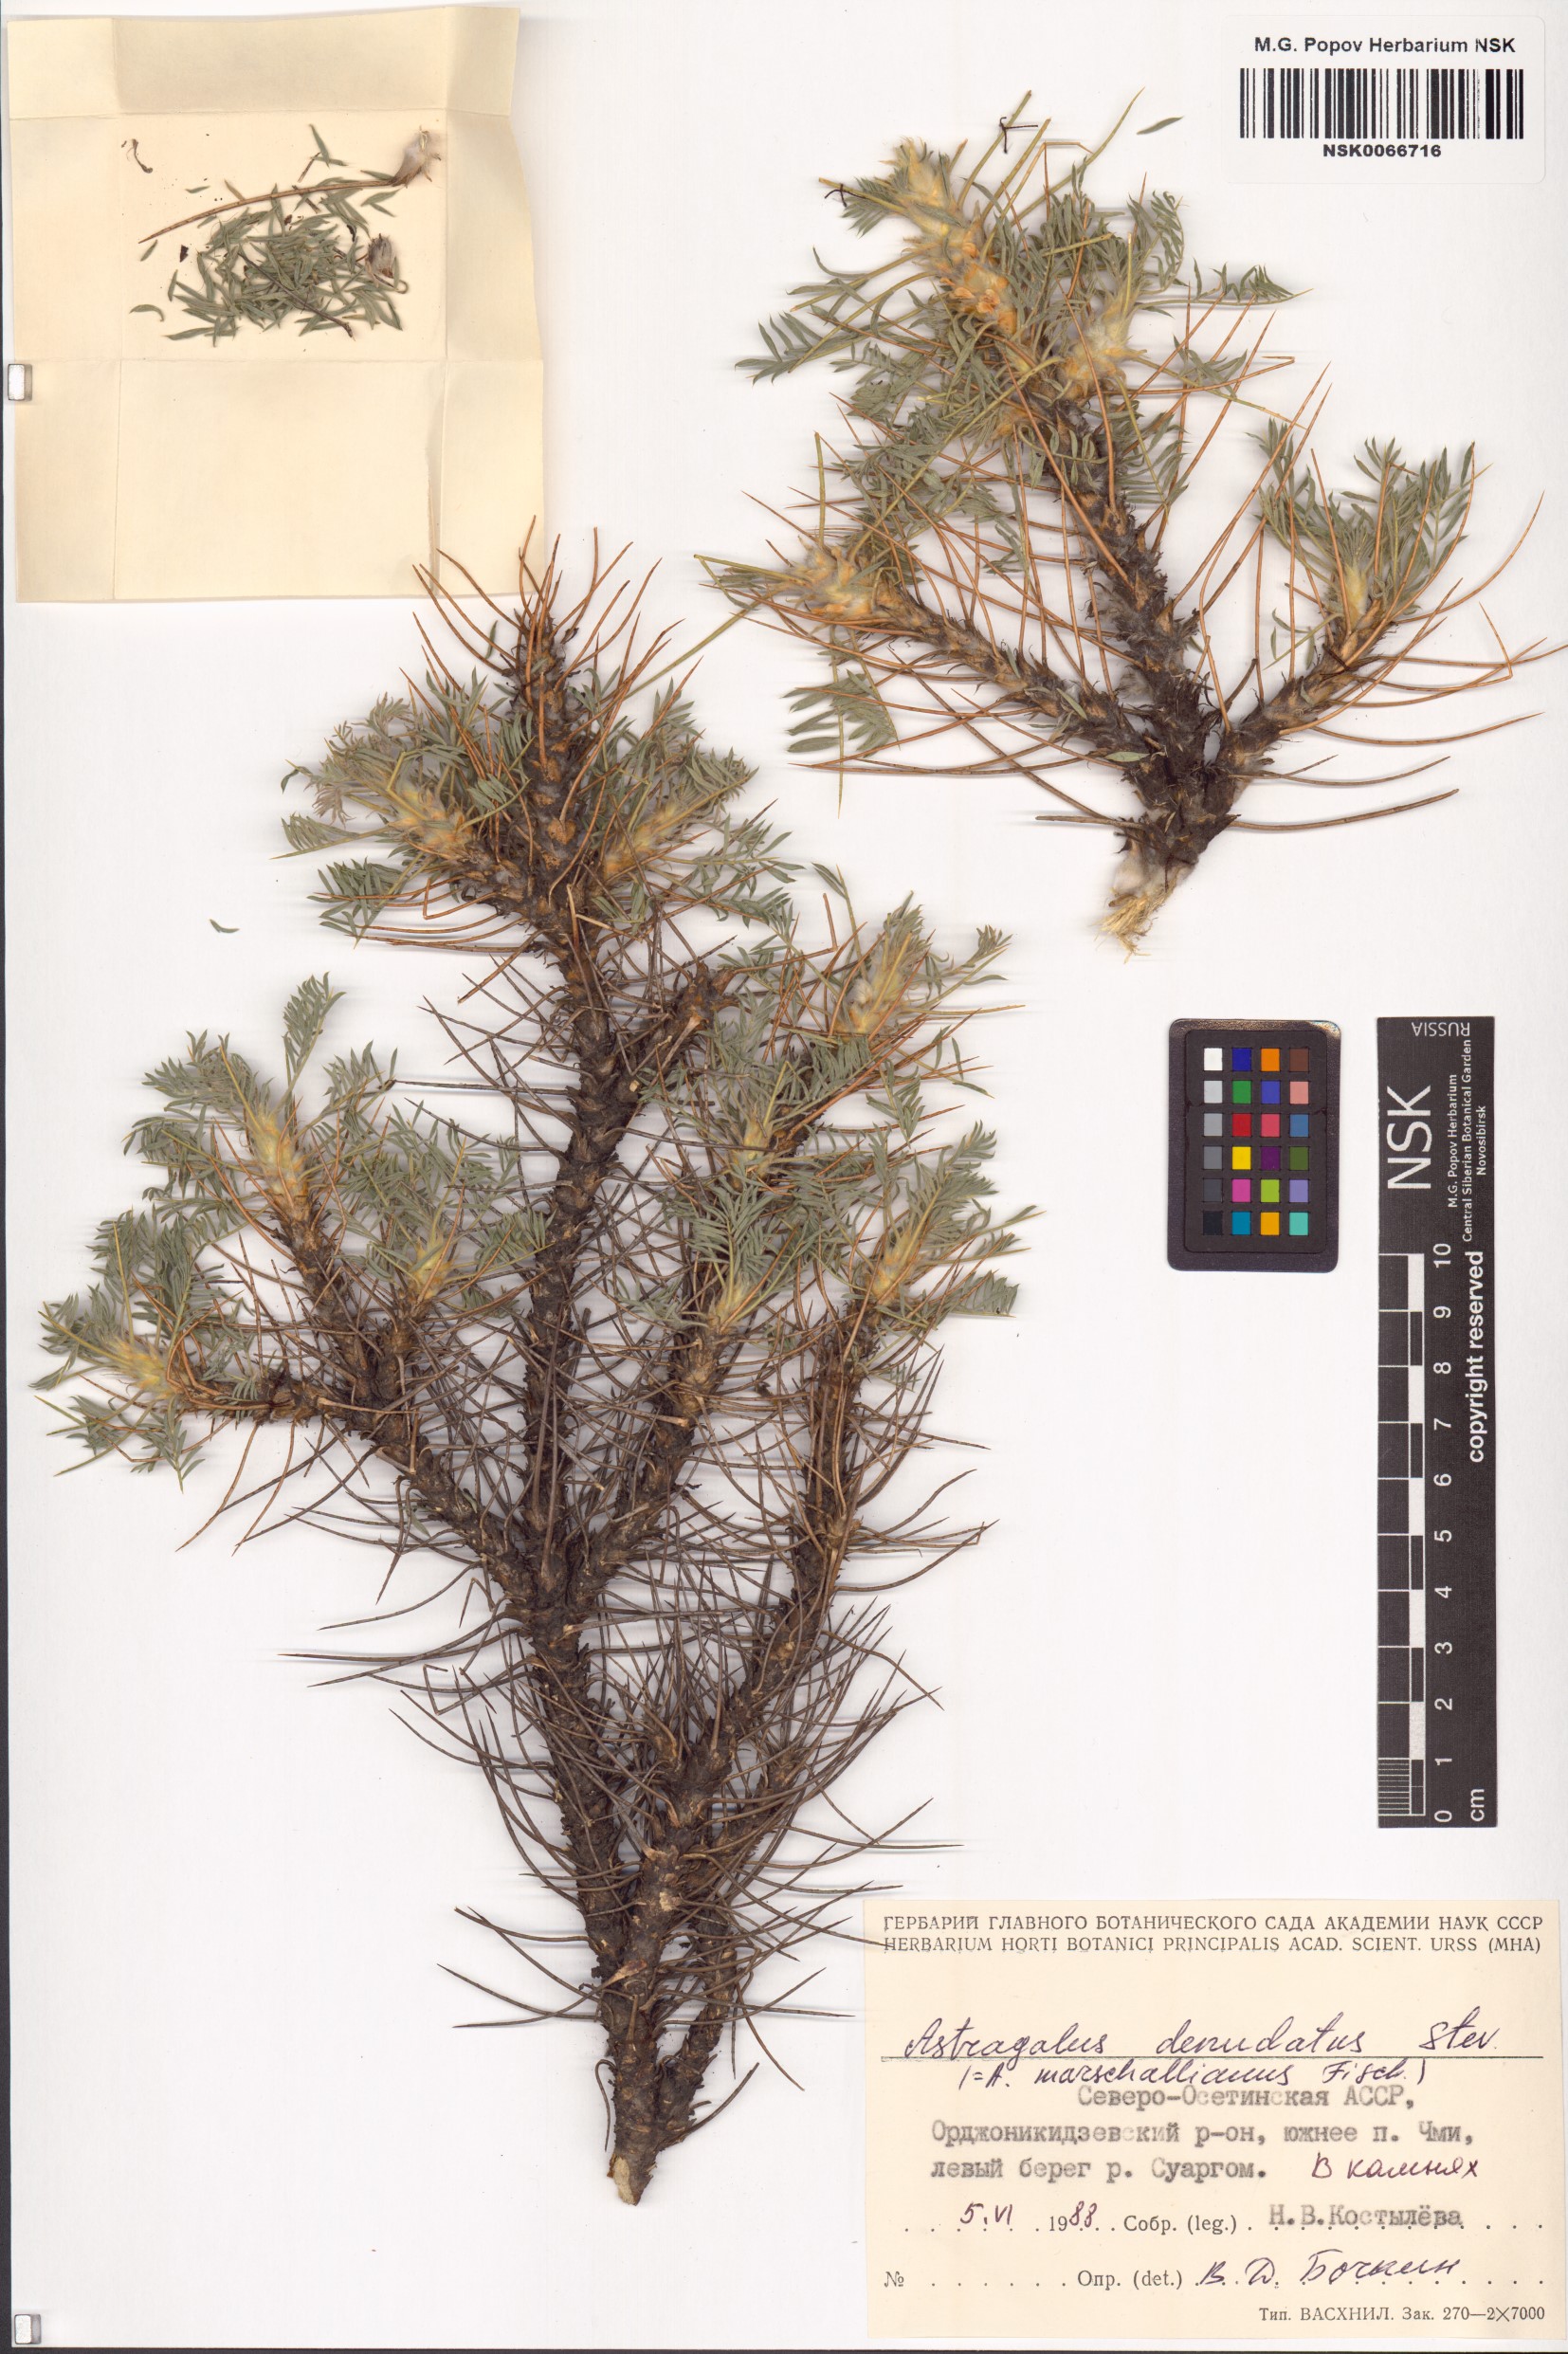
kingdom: Plantae
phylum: Tracheophyta
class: Magnoliopsida
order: Fabales
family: Fabaceae
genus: Astragalus
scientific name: Astragalus denudatus
